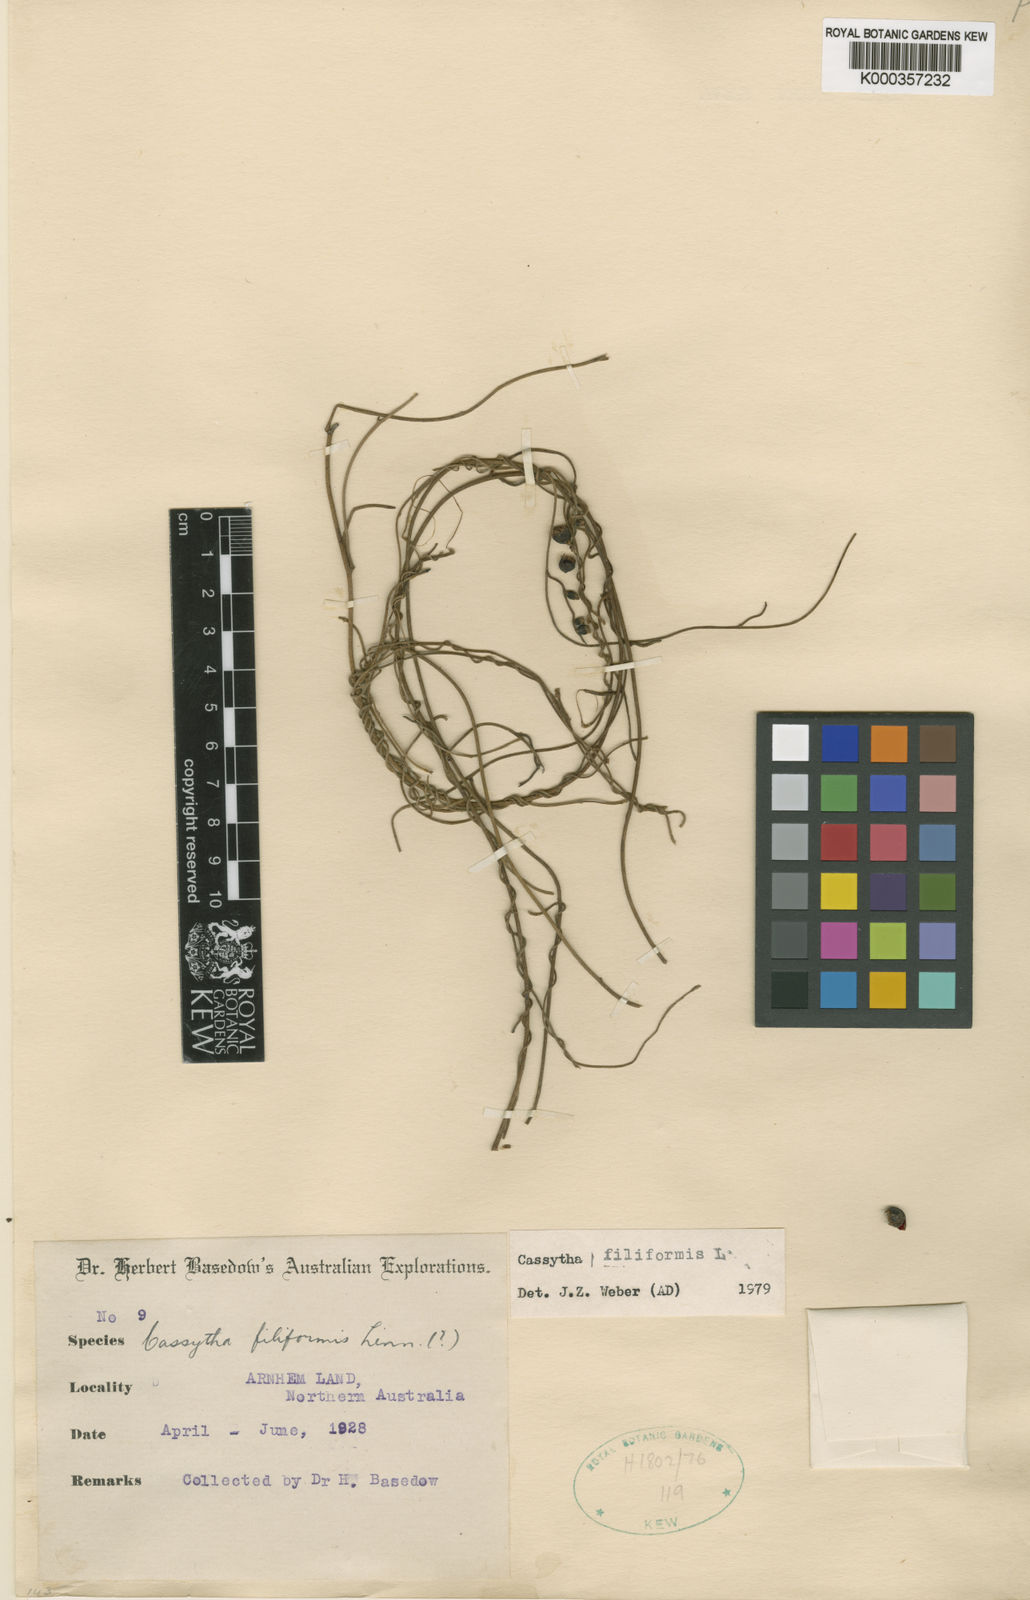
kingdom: Plantae
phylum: Tracheophyta
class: Magnoliopsida
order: Laurales
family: Lauraceae
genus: Cassytha
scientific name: Cassytha filiformis
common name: Dodder-laurel
